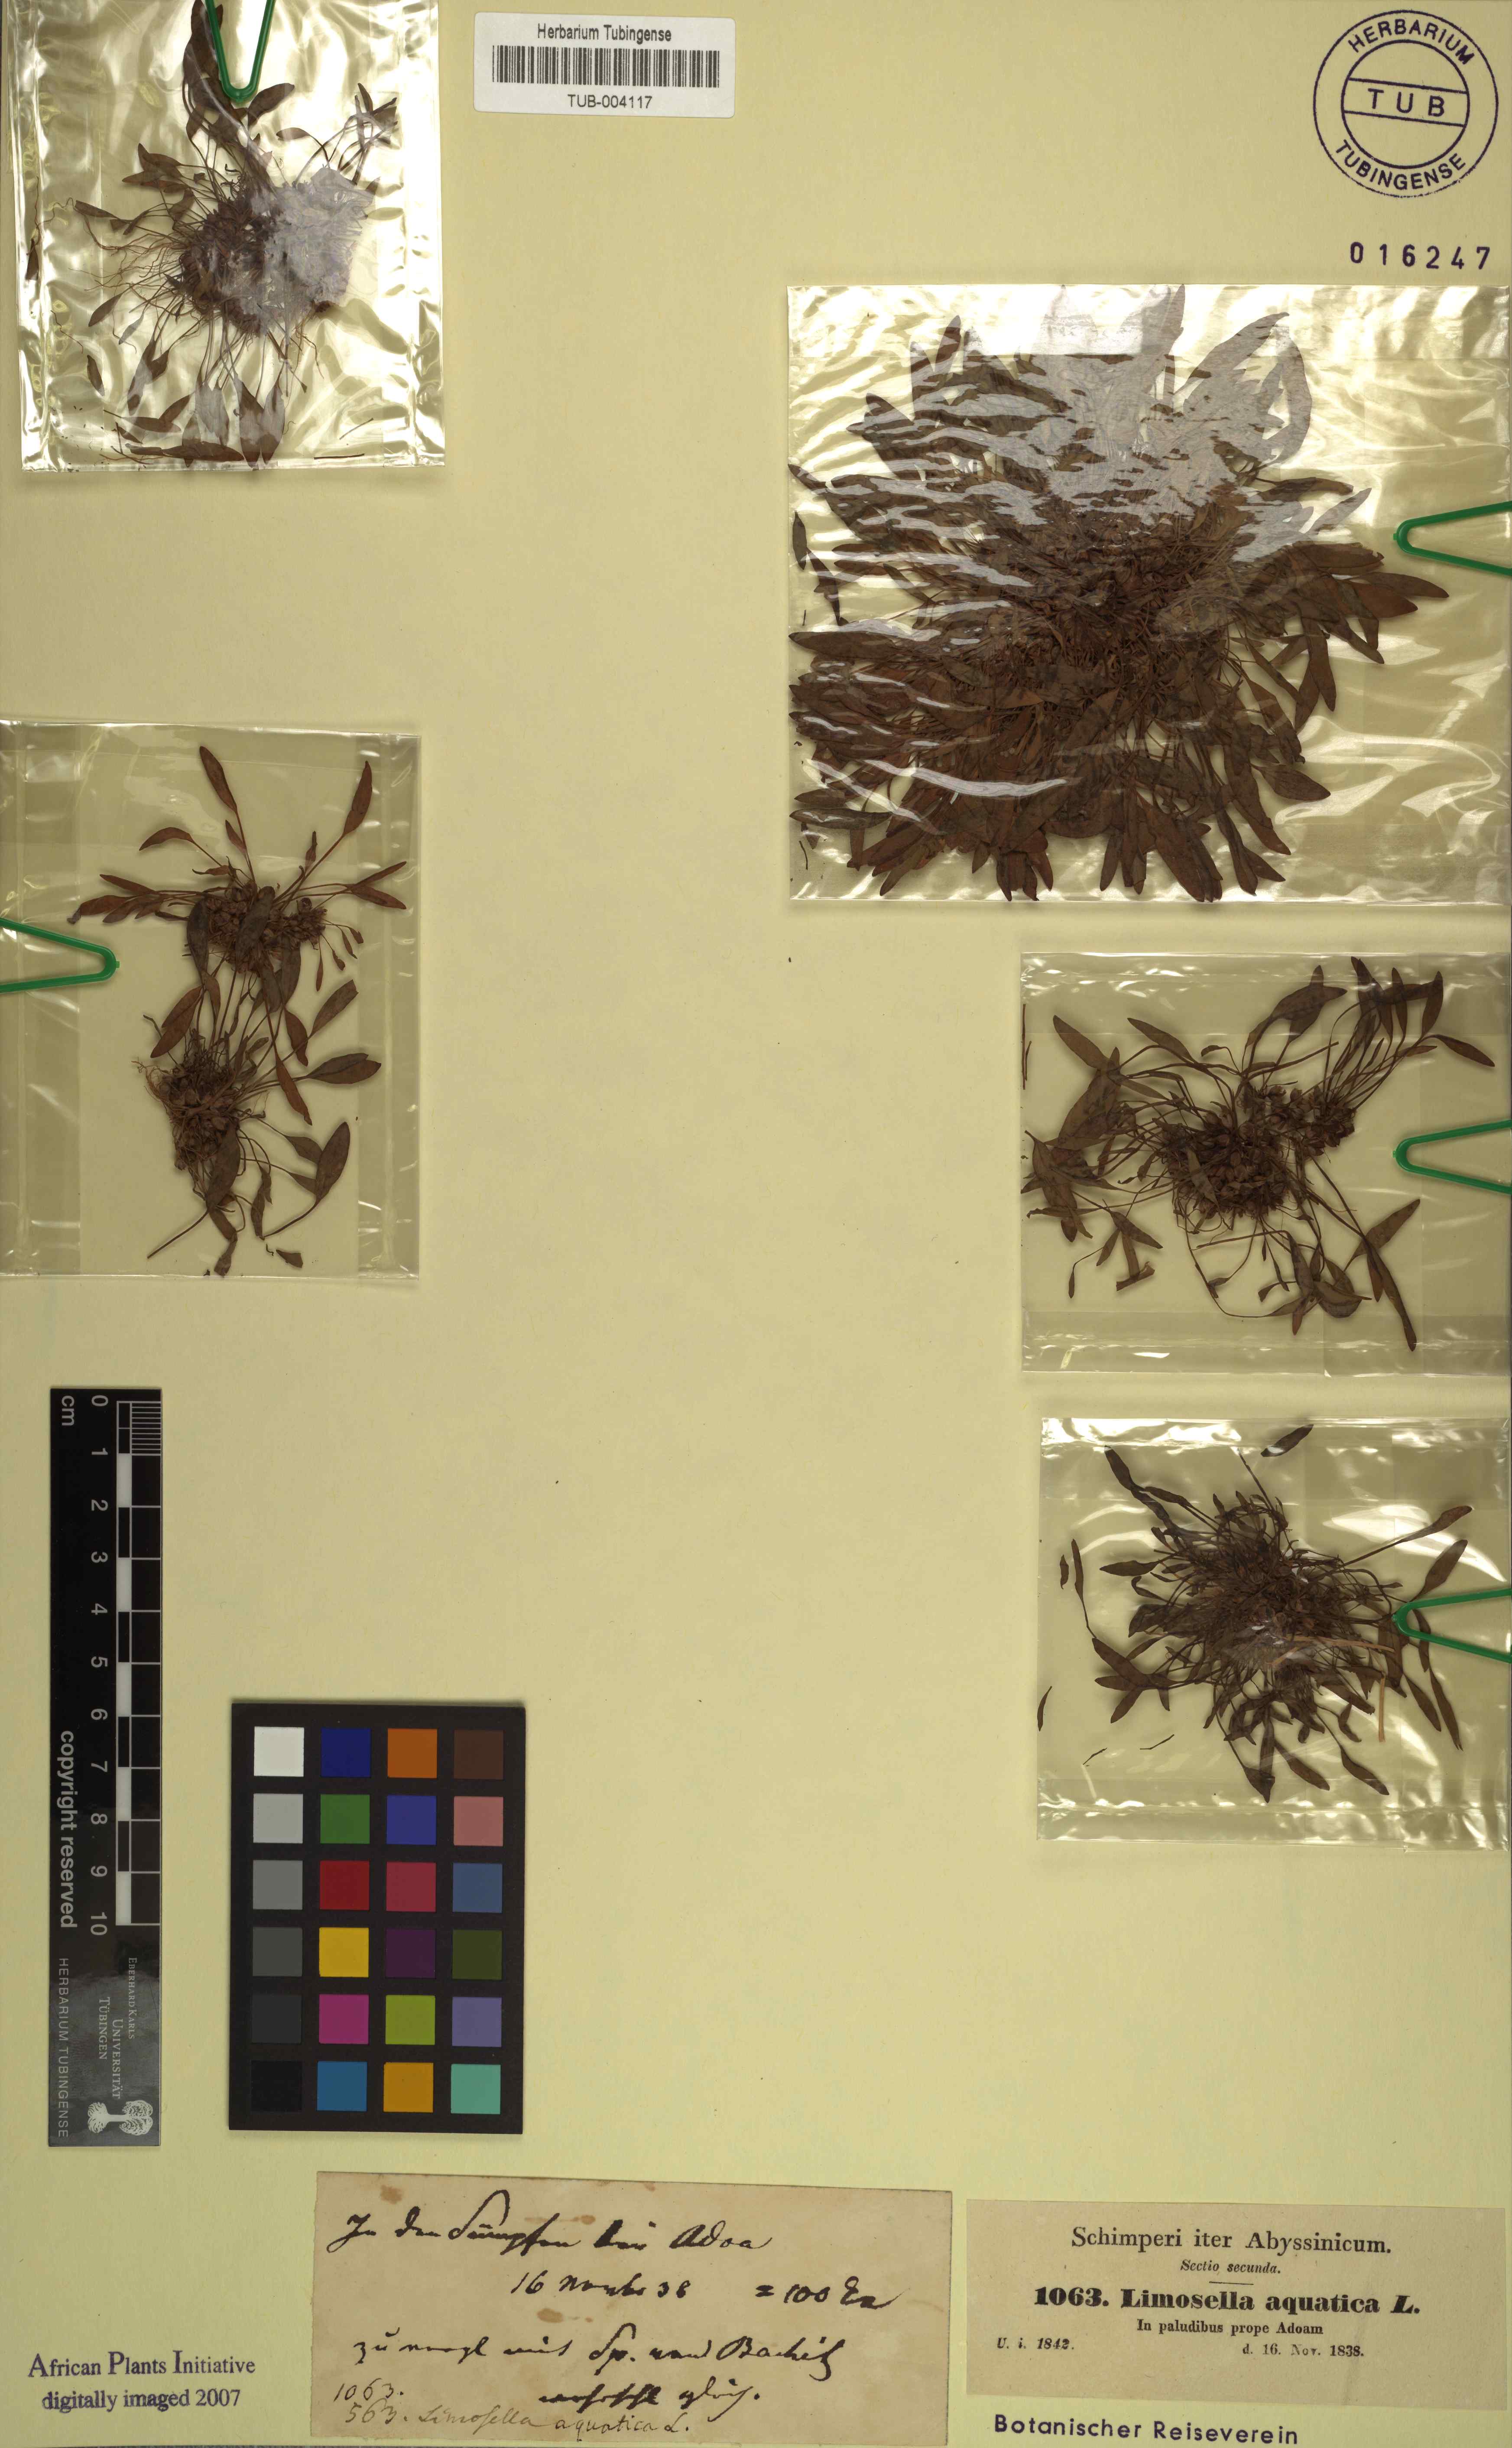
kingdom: Plantae
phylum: Tracheophyta
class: Magnoliopsida
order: Asterales
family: Asteraceae
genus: Petalacte
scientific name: Petalacte coronata
